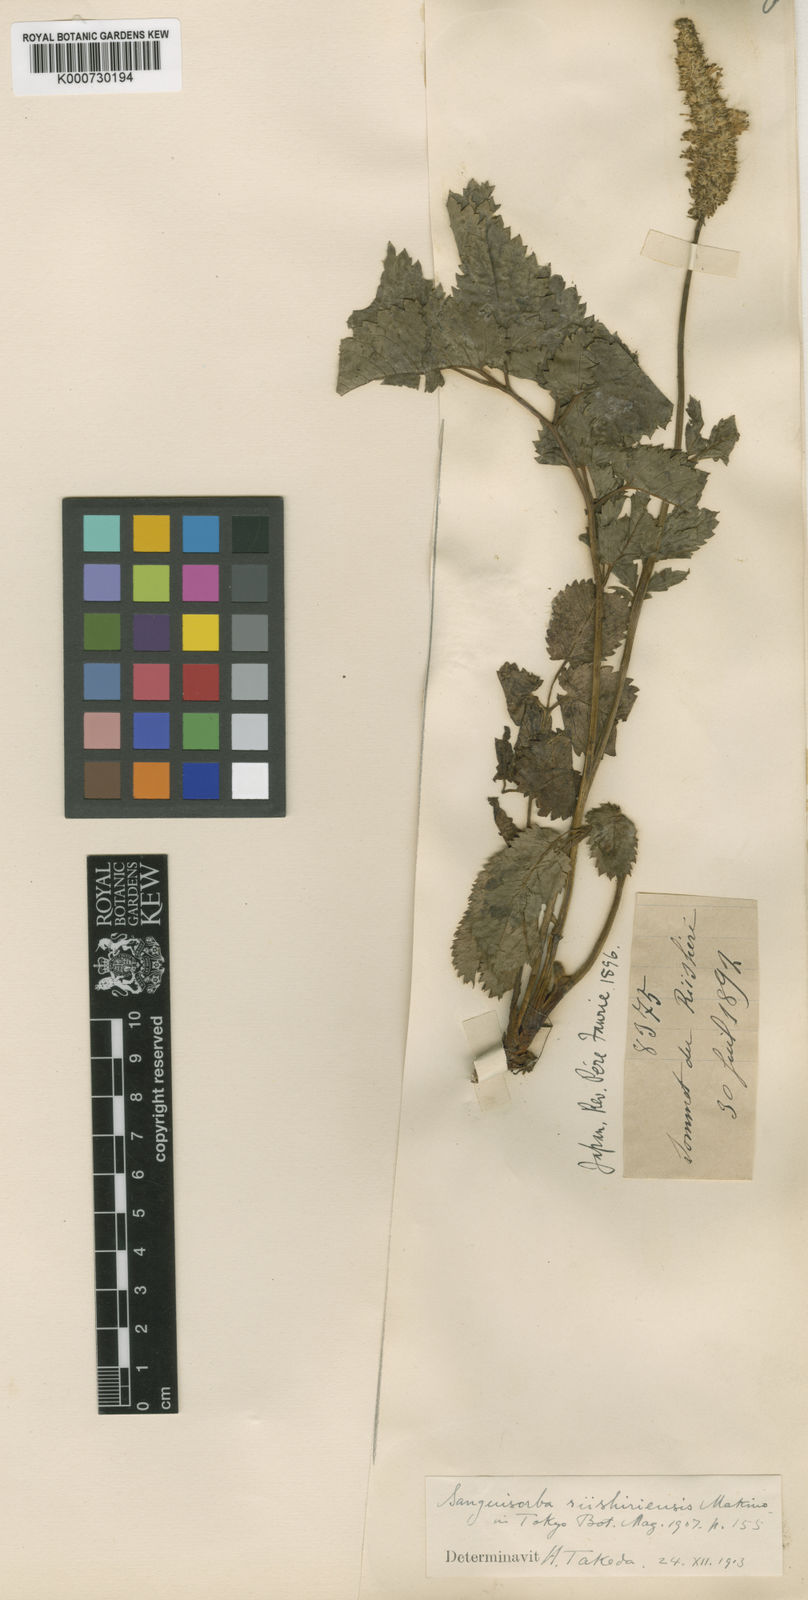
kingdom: Plantae
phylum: Tracheophyta
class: Magnoliopsida
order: Rosales
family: Rosaceae
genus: Sanguisorba
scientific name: Sanguisorba stipulata
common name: Sitka burnet
